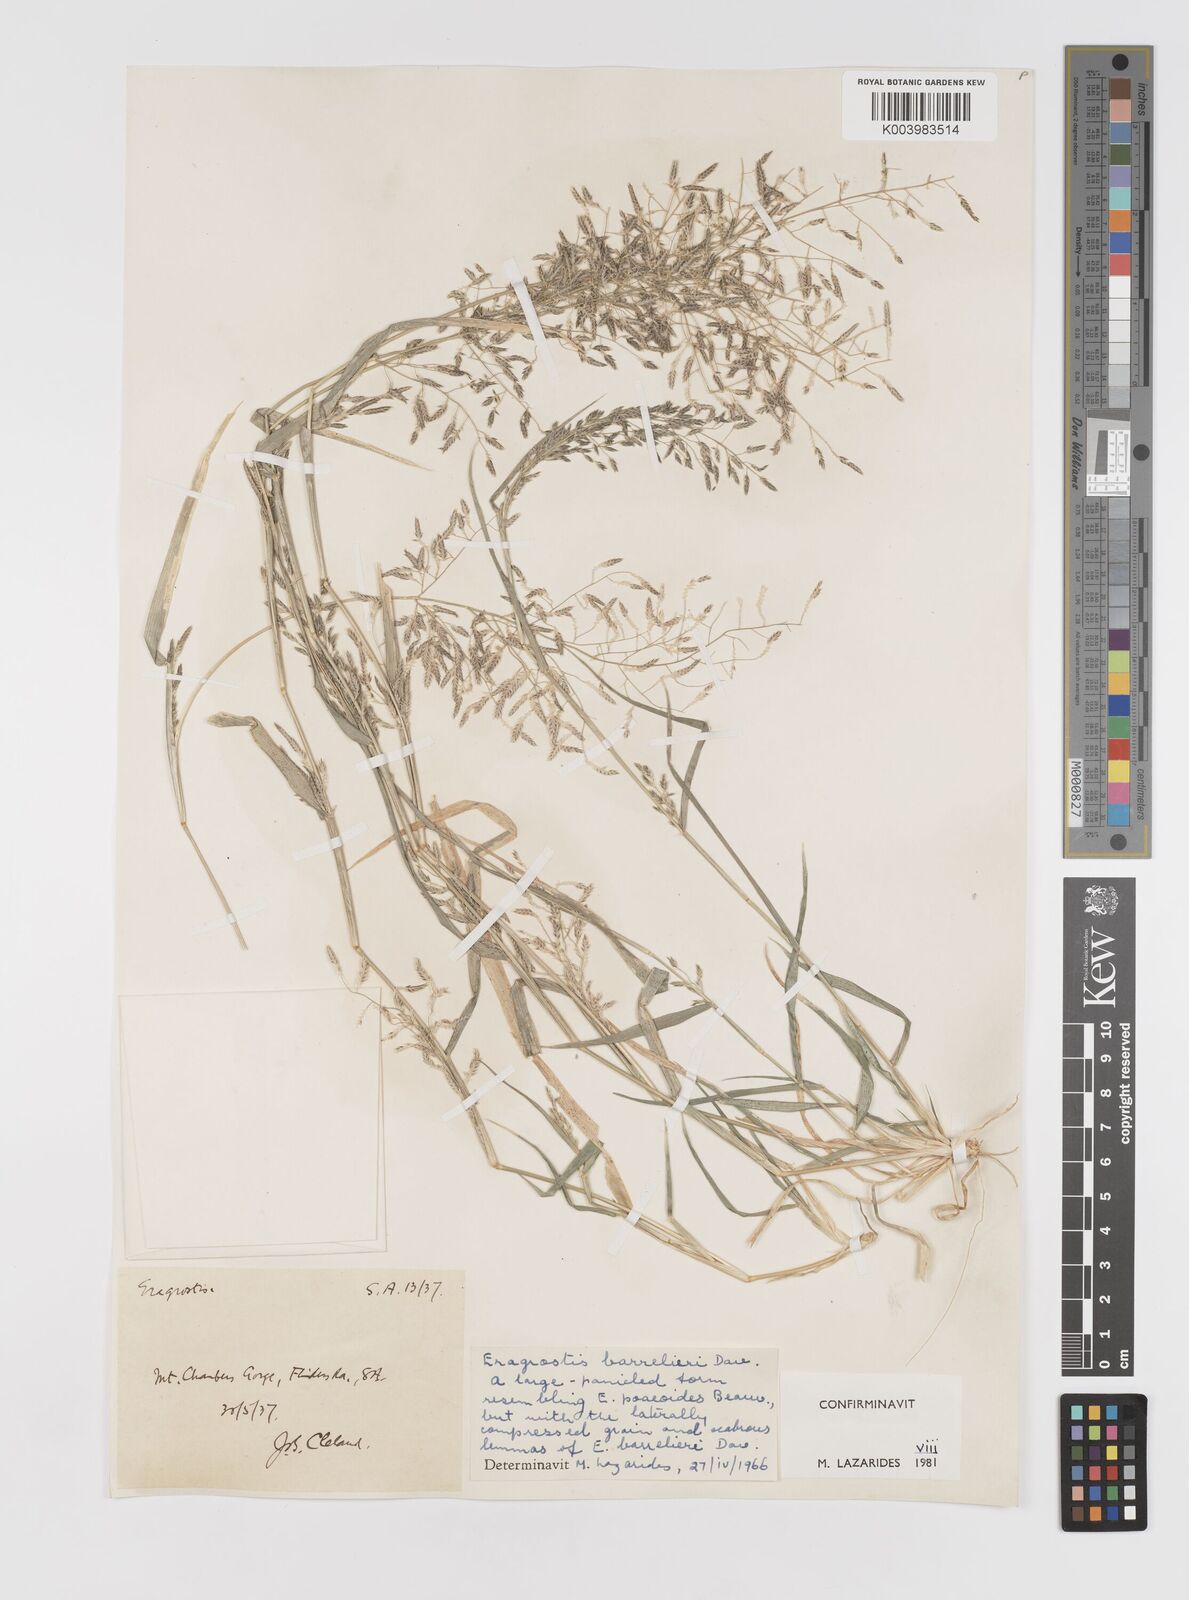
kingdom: Plantae
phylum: Tracheophyta
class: Liliopsida
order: Poales
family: Poaceae
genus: Eragrostis
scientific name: Eragrostis barrelieri
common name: Mediterranean lovegrass
